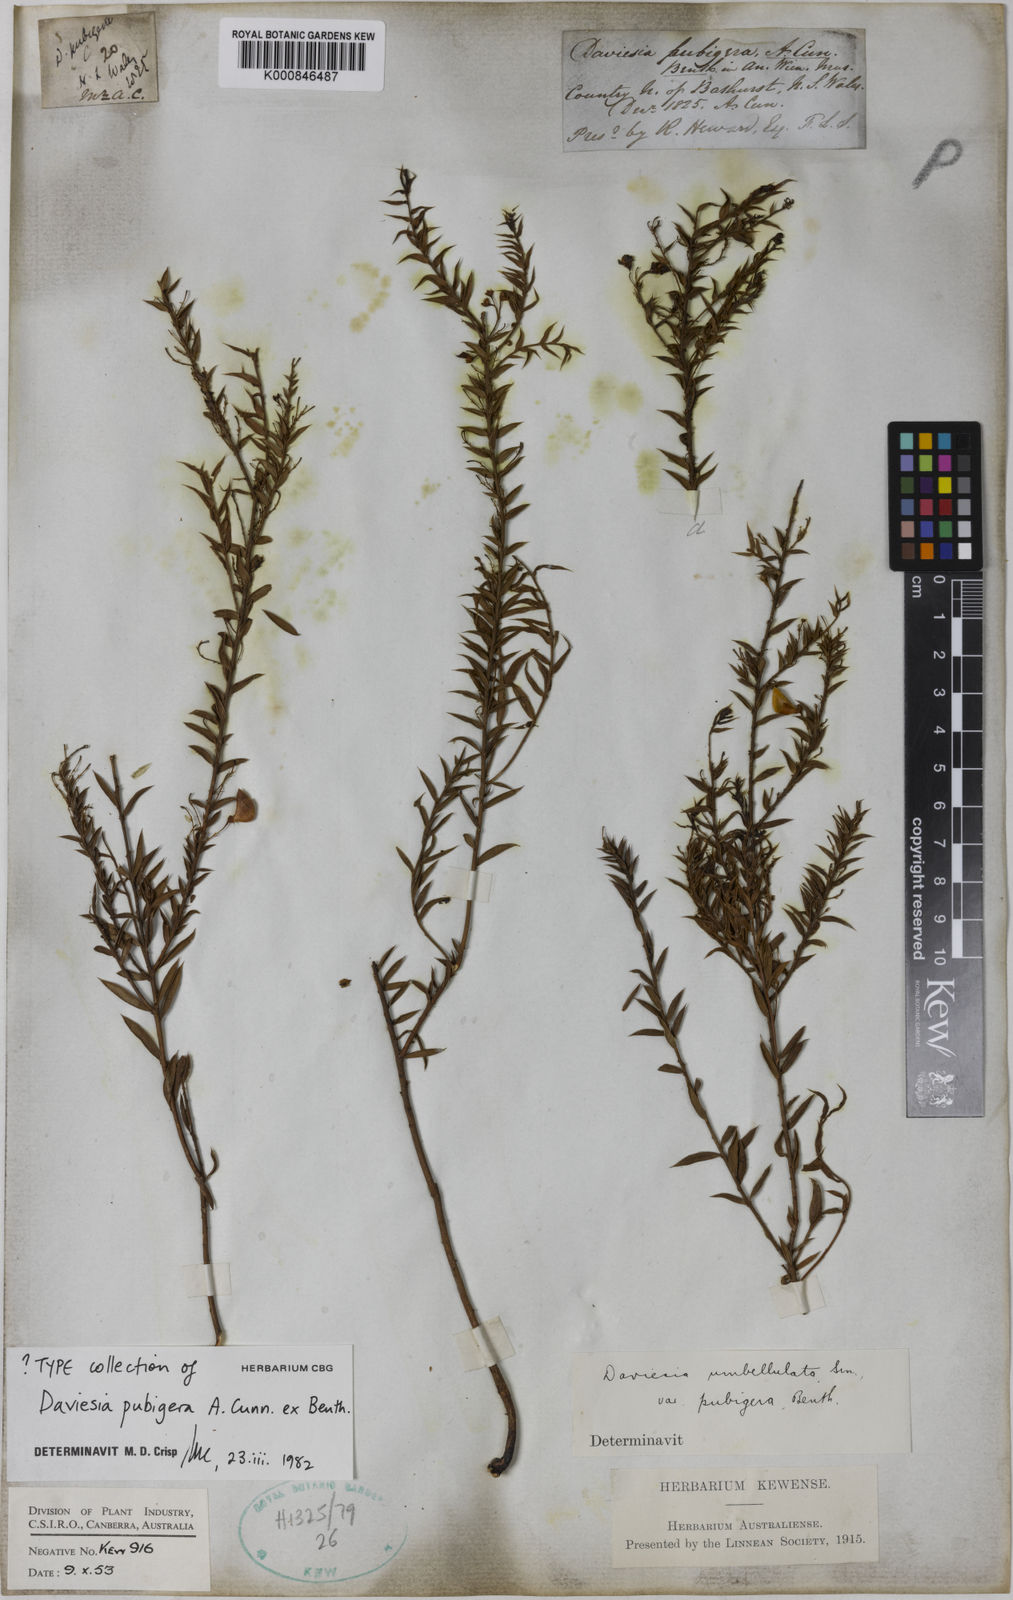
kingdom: Plantae
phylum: Tracheophyta
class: Magnoliopsida
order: Fabales
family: Fabaceae
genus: Daviesia
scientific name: Daviesia pubigera
